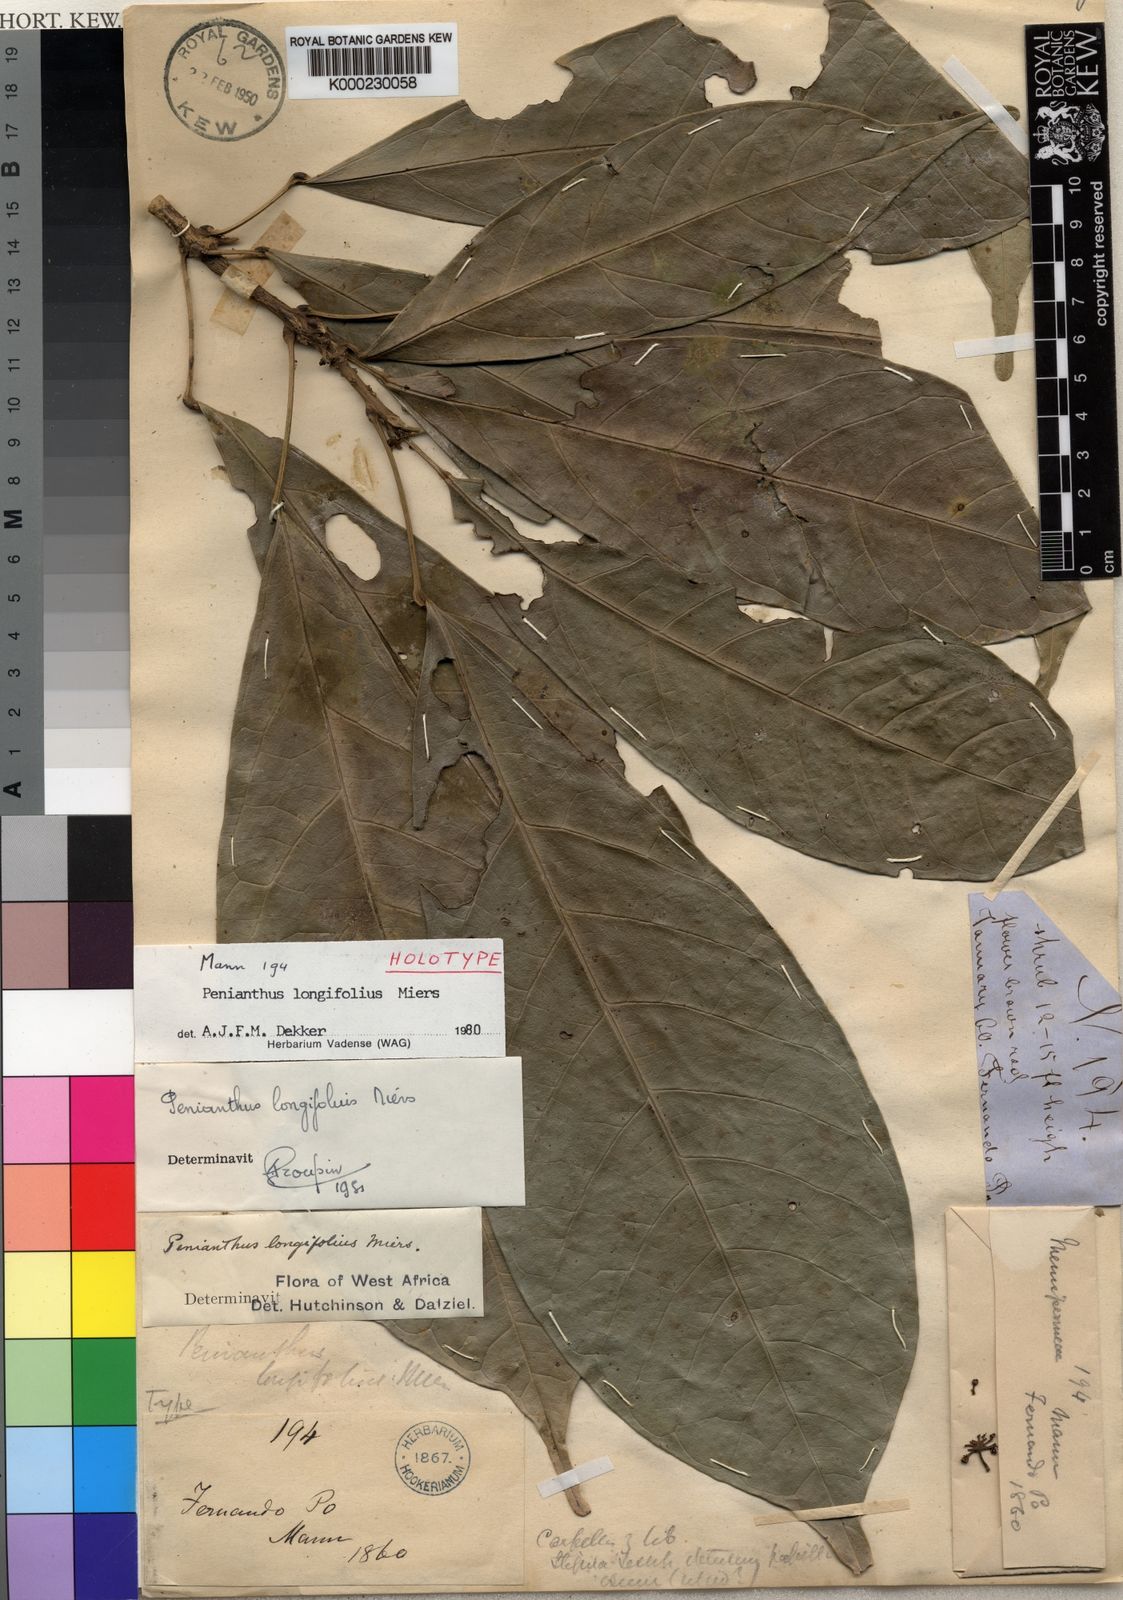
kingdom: Plantae
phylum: Tracheophyta
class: Magnoliopsida
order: Ranunculales
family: Menispermaceae
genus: Penianthus
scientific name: Penianthus longifolius
